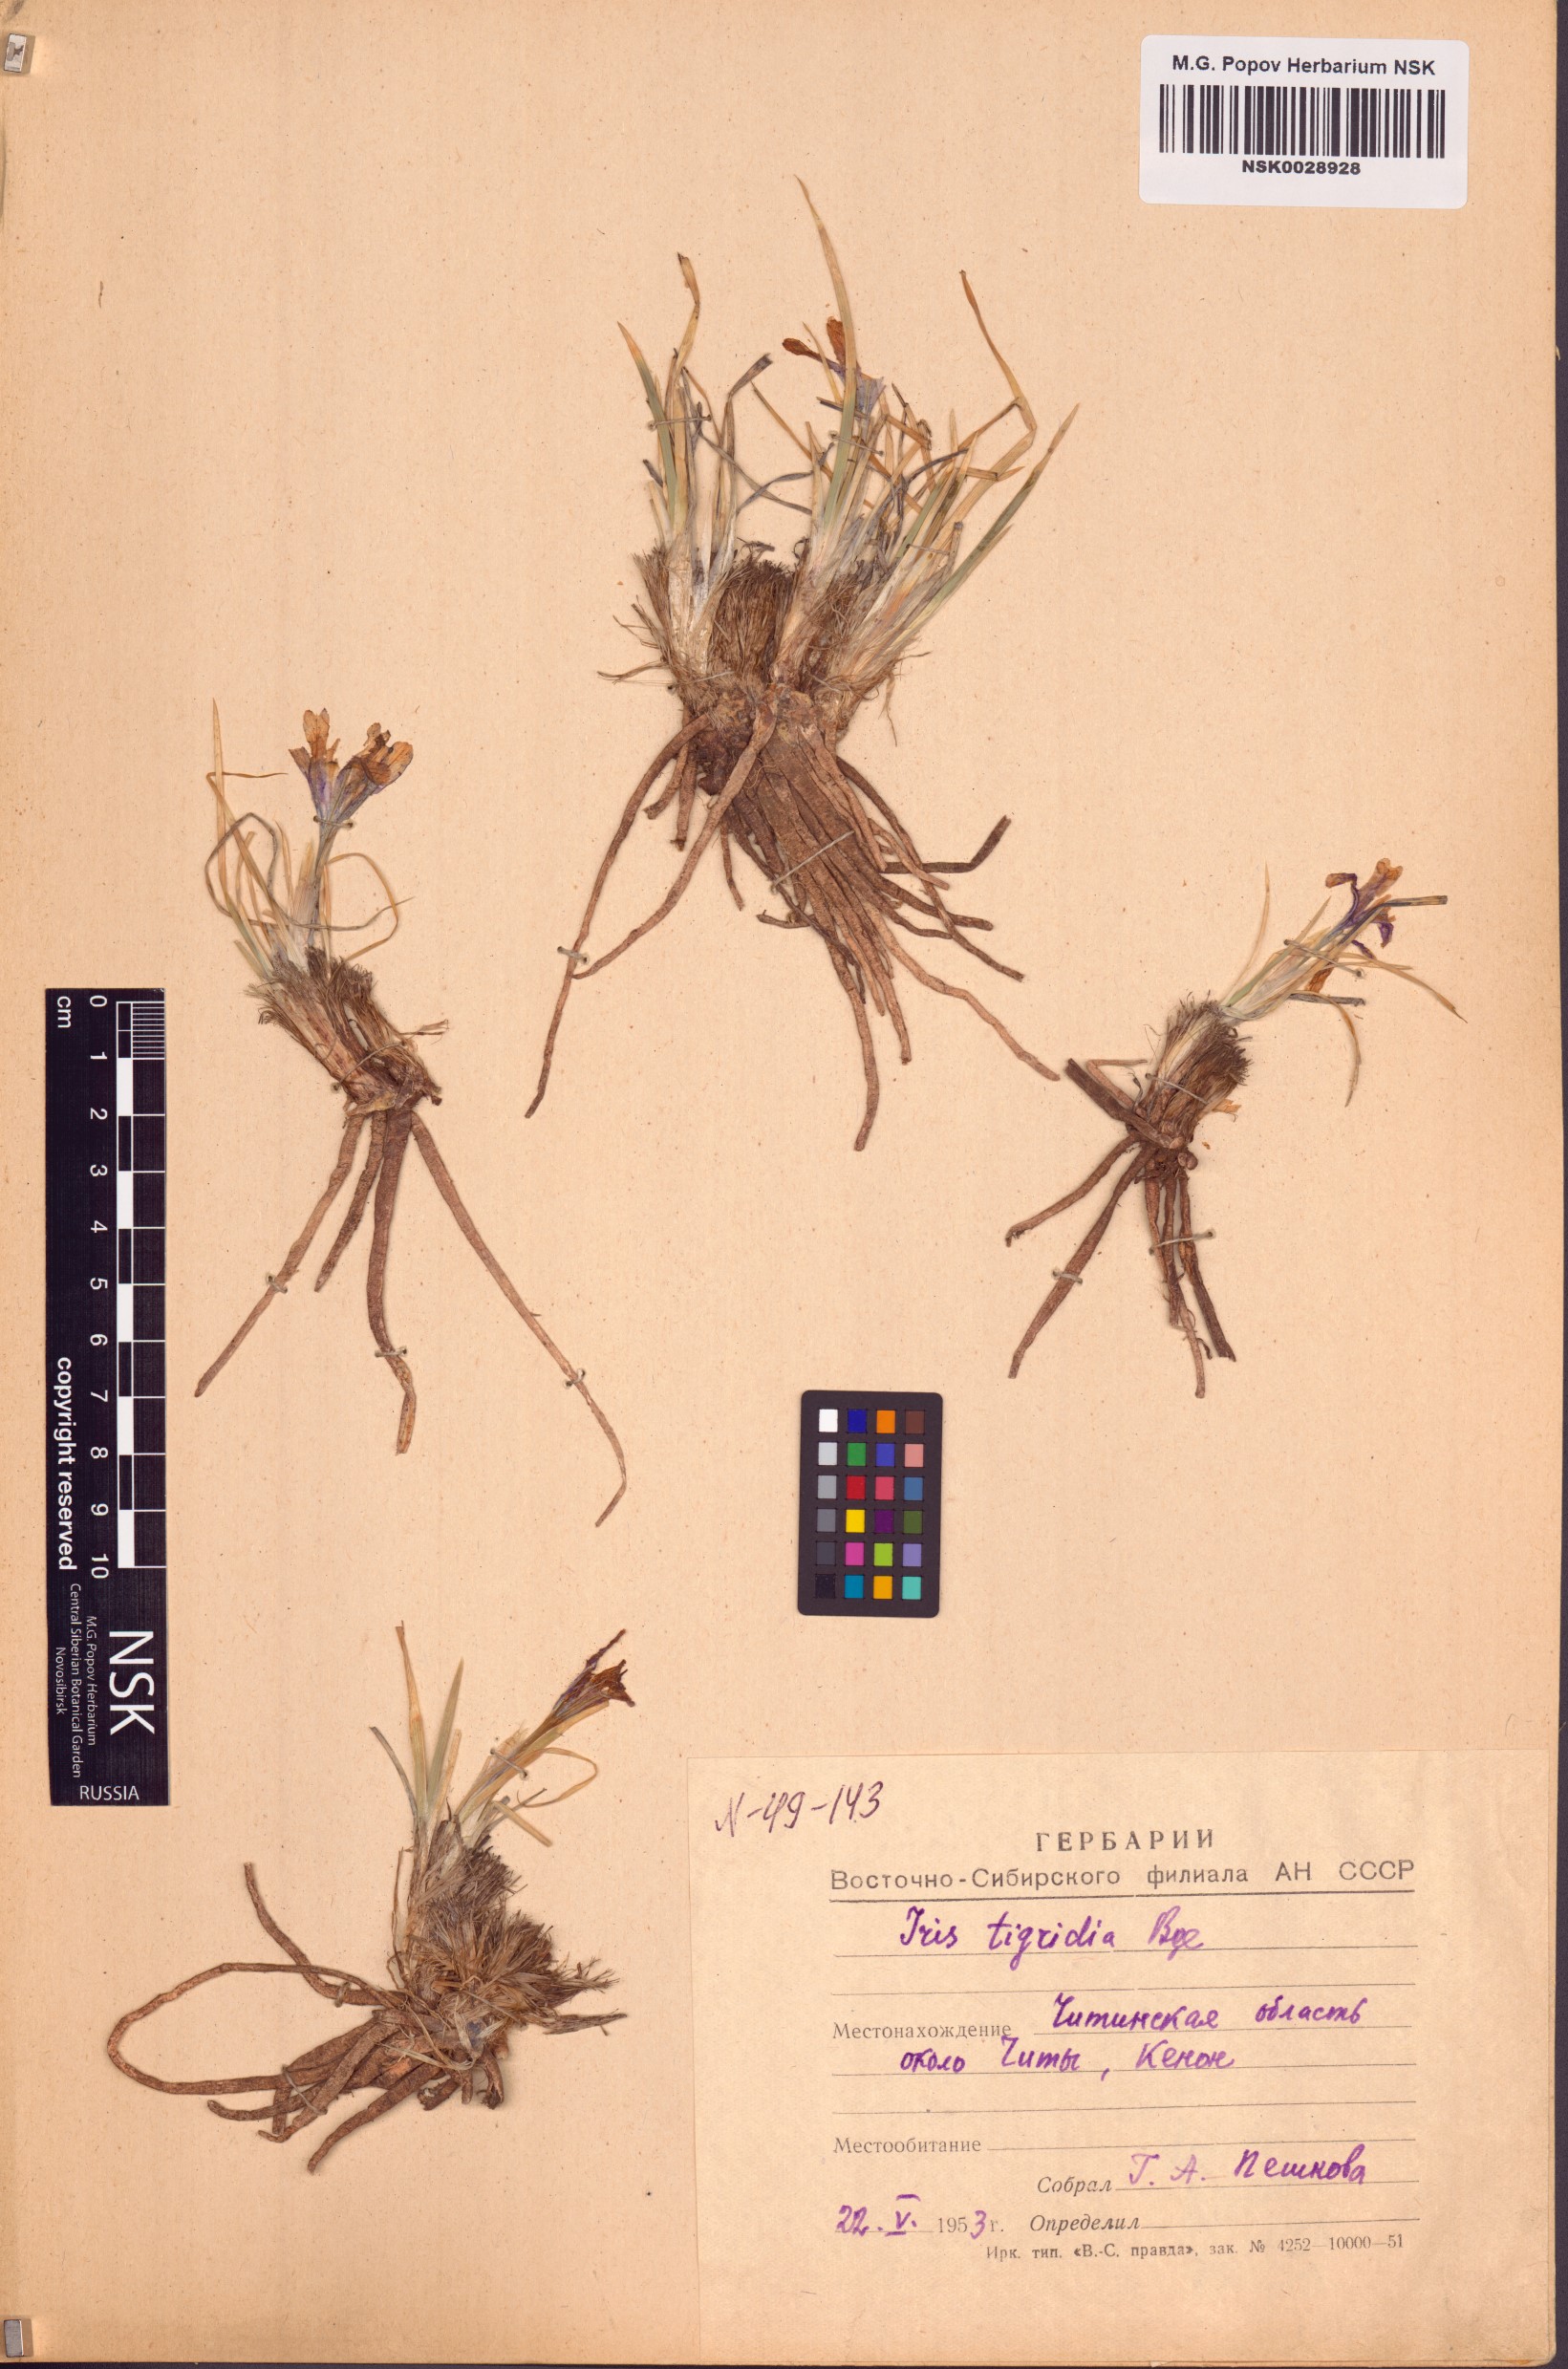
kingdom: Plantae
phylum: Tracheophyta
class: Liliopsida
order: Asparagales
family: Iridaceae
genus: Iris
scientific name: Iris tigridia
